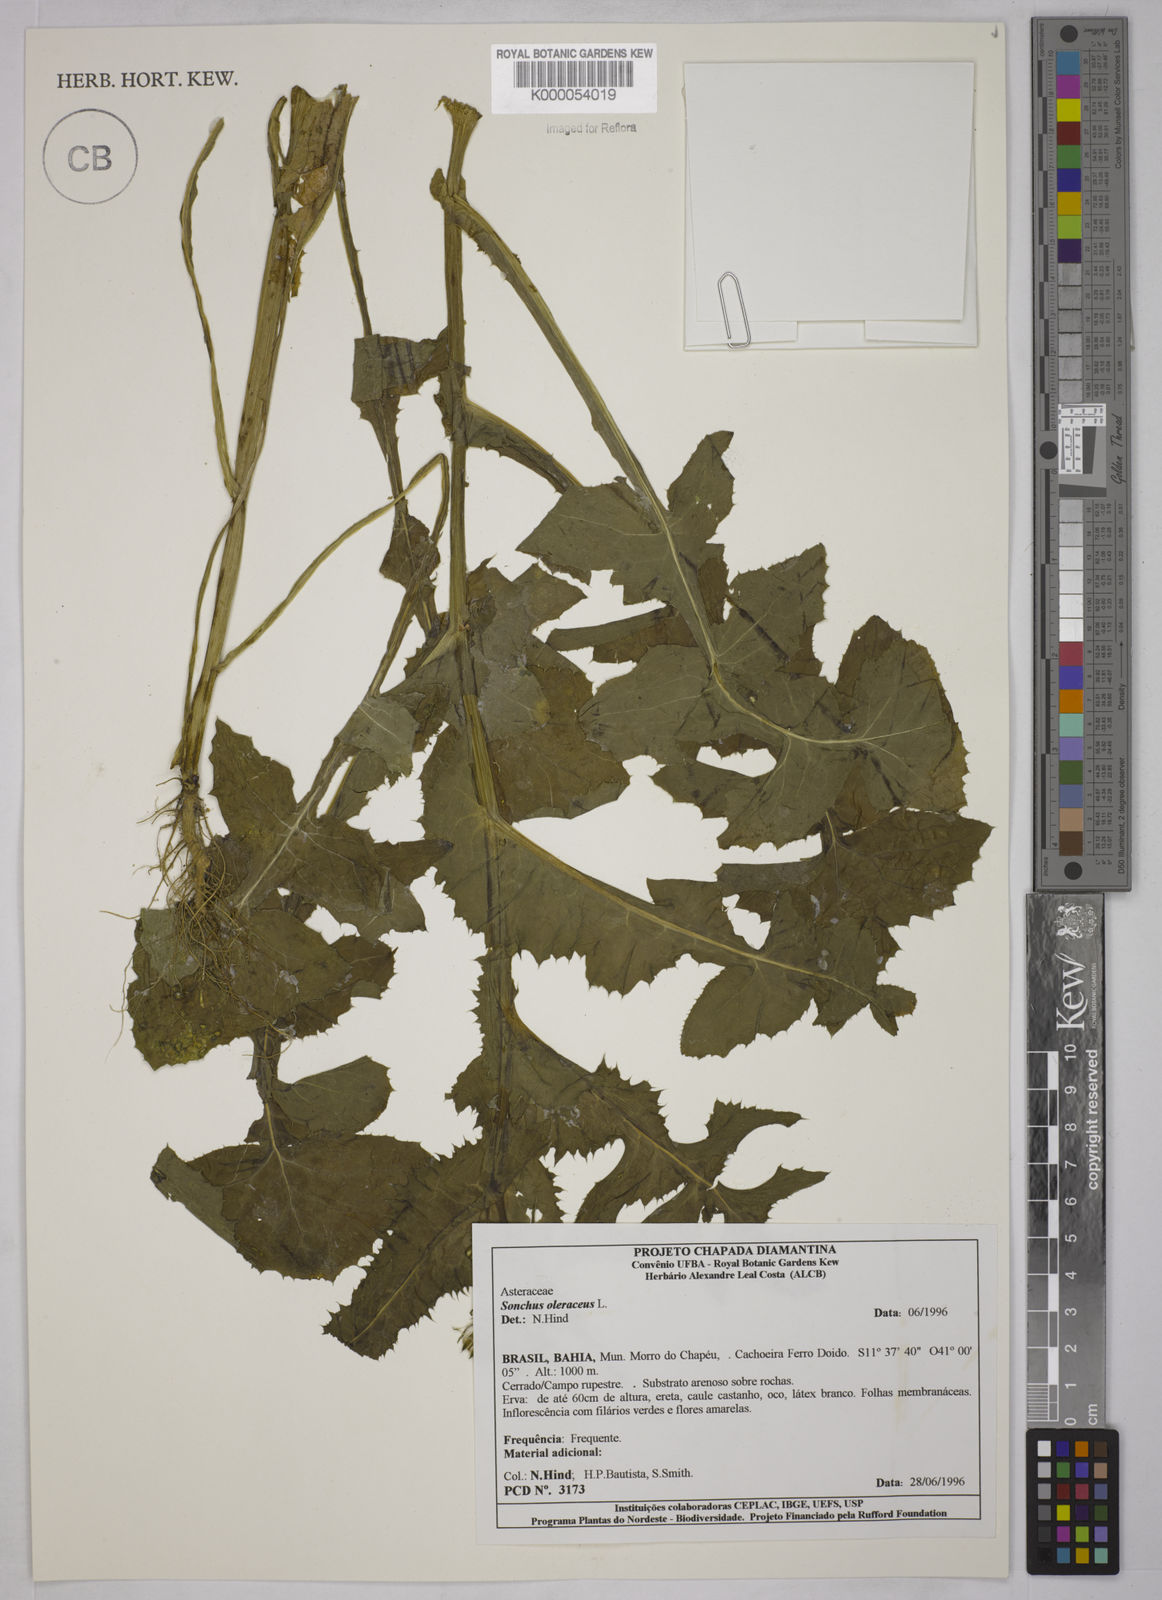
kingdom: Plantae
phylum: Tracheophyta
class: Magnoliopsida
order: Asterales
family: Asteraceae
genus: Sonchus
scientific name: Sonchus oleraceus
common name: Common sowthistle
